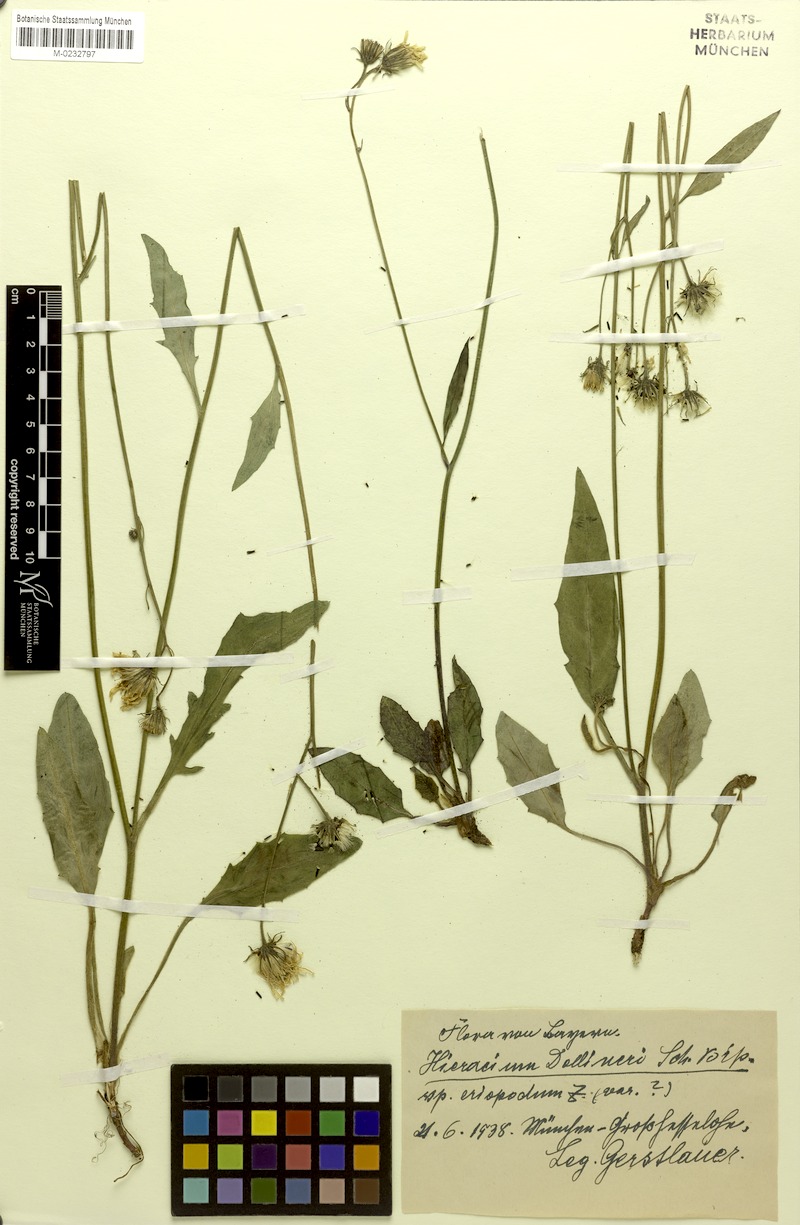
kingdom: Plantae
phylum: Tracheophyta
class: Magnoliopsida
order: Asterales
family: Asteraceae
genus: Hieracium
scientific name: Hieracium dollineri
